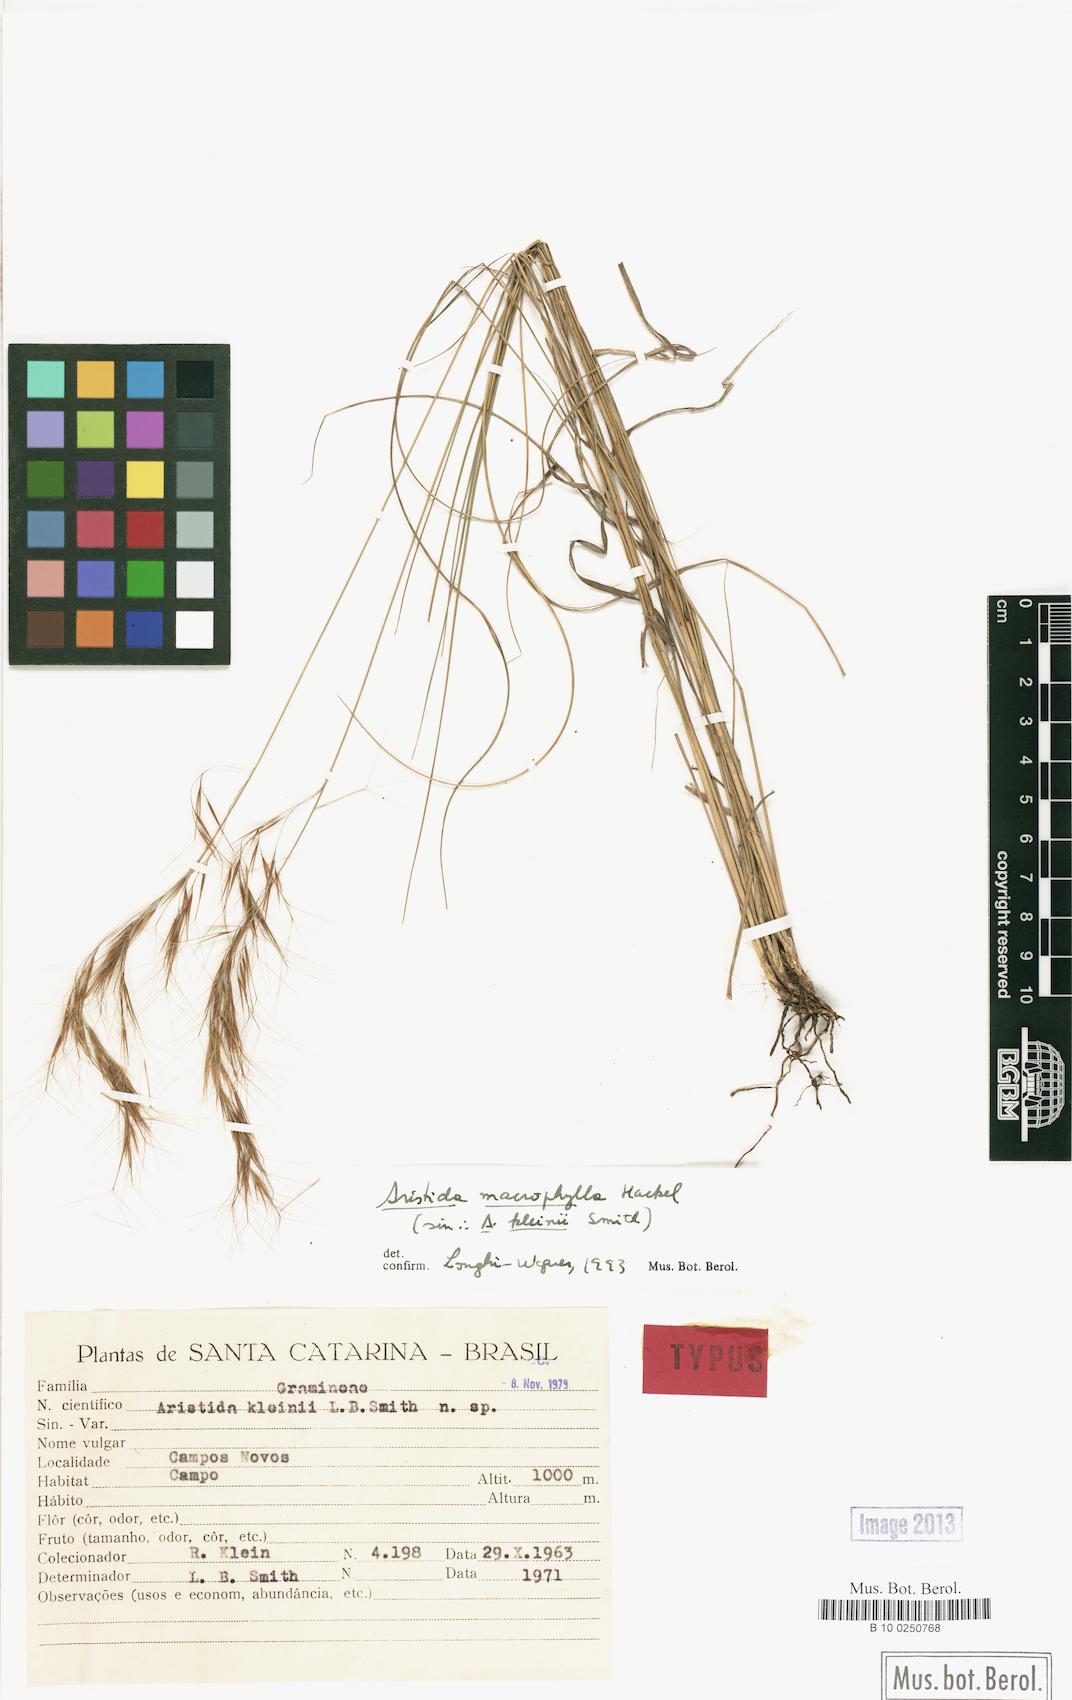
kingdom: Plantae
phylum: Tracheophyta
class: Liliopsida
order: Poales
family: Poaceae
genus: Aristida
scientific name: Aristida macrophylla
